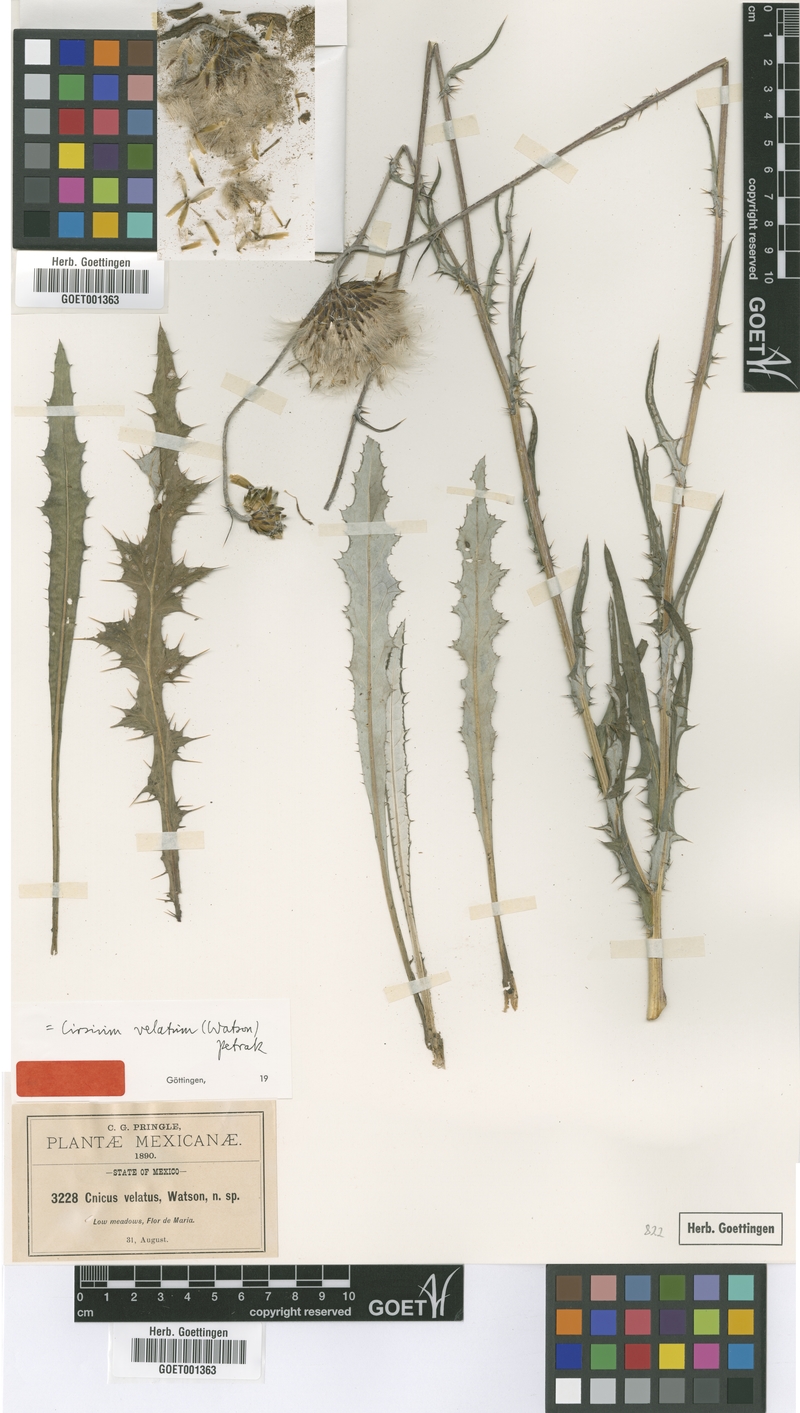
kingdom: Plantae
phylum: Tracheophyta
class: Magnoliopsida
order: Asterales
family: Asteraceae
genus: Cirsium
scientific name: Cirsium velatum
